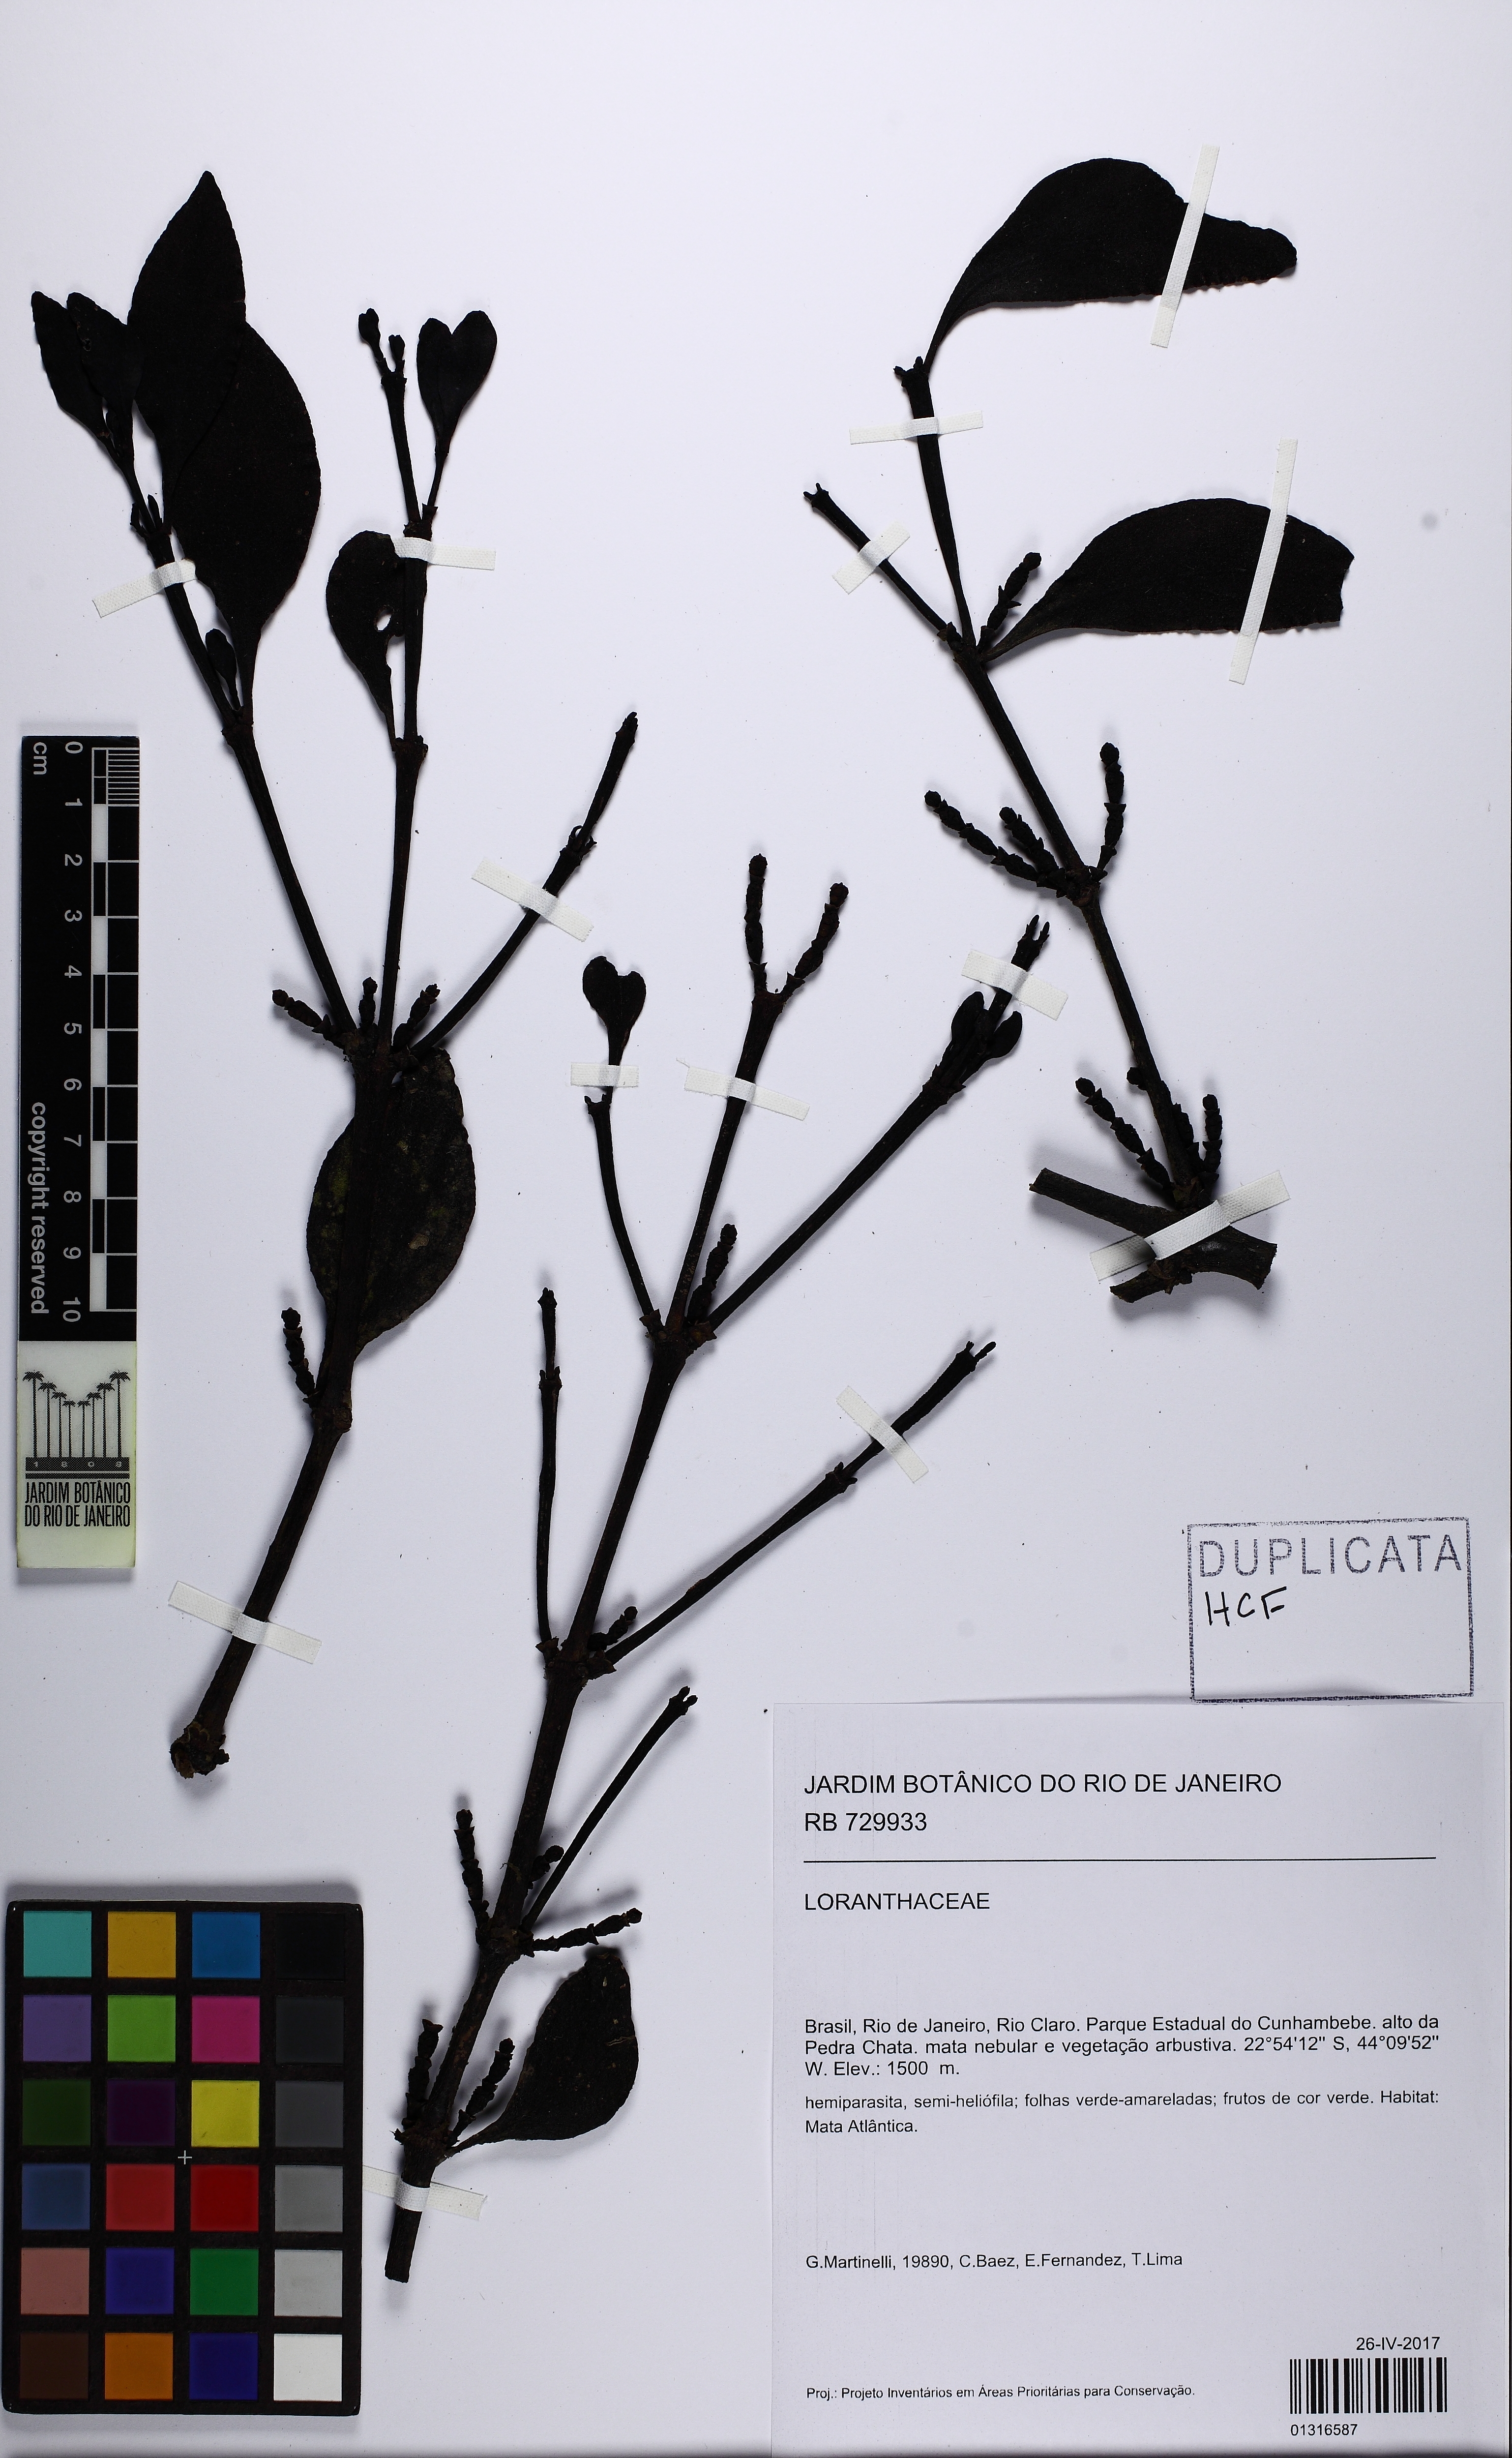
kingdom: Plantae
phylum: Tracheophyta
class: Magnoliopsida
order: Santalales
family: Viscaceae
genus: Phoradendron
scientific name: Phoradendron bathyoryctum
